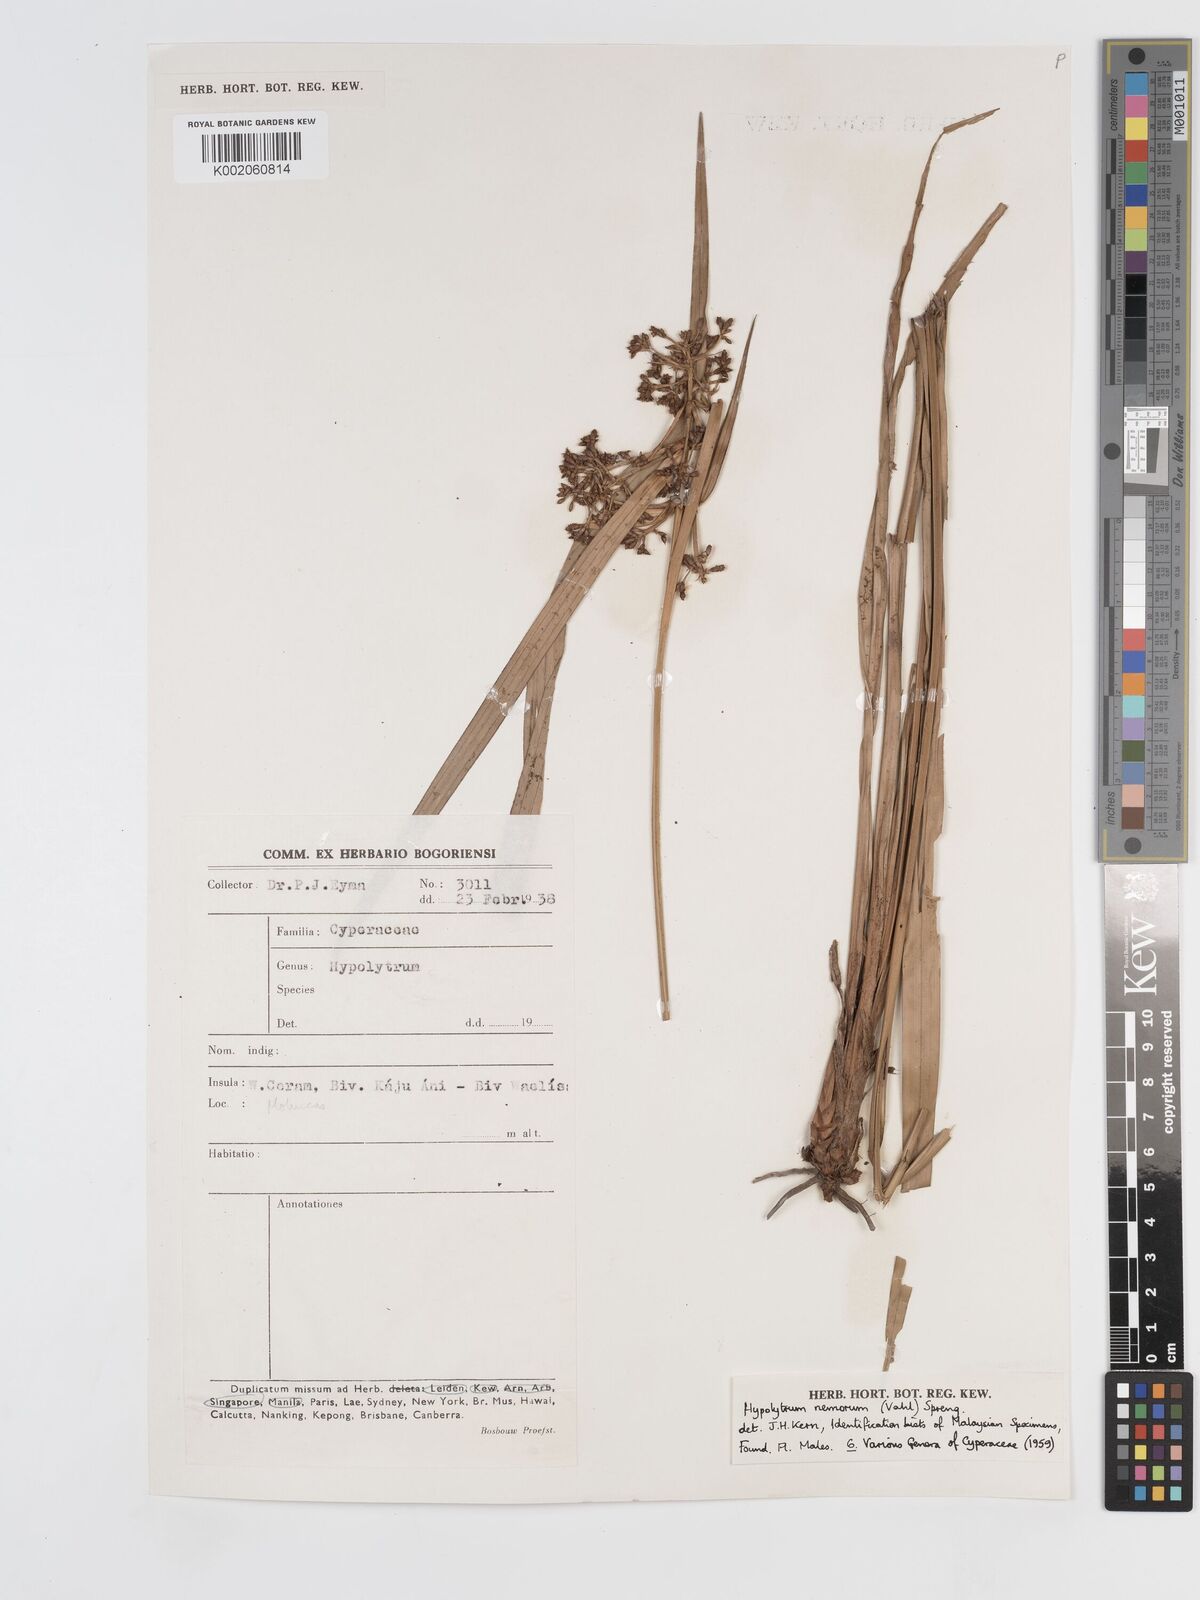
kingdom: Plantae
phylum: Tracheophyta
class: Liliopsida
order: Poales
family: Cyperaceae
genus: Hypolytrum
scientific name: Hypolytrum nemorum
